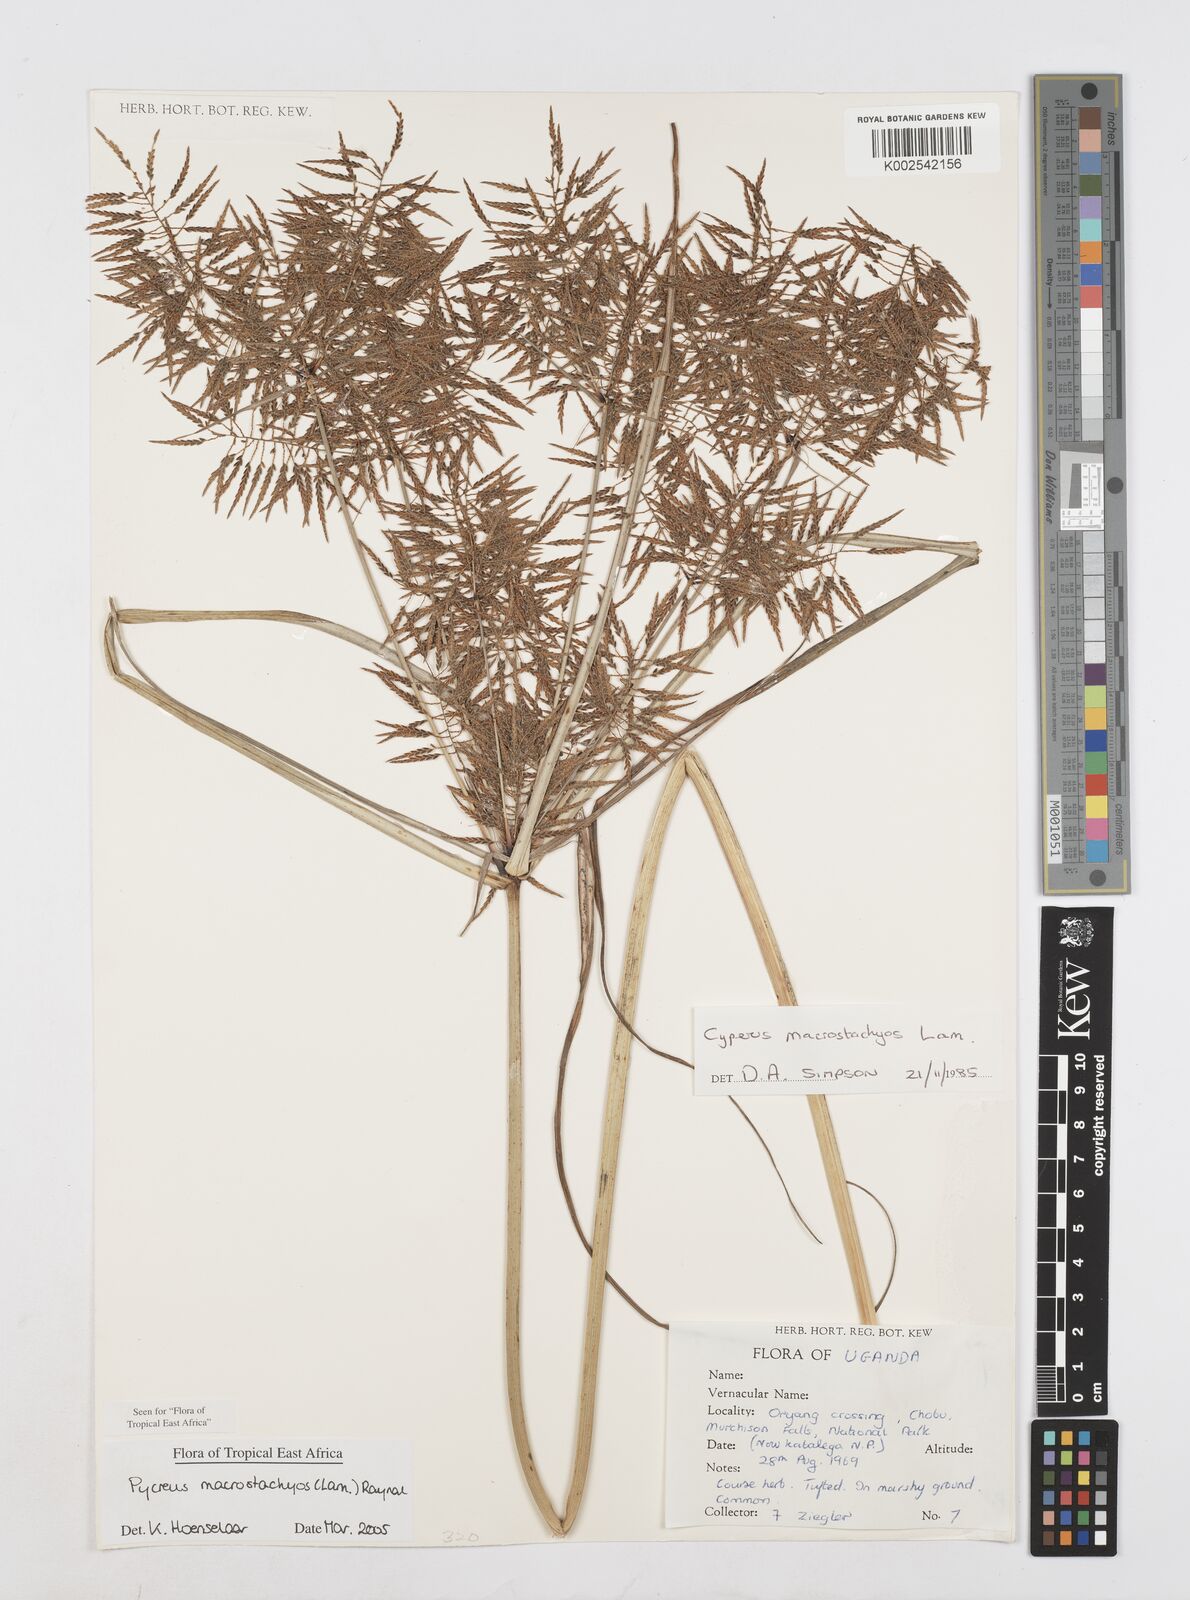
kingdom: Plantae
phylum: Tracheophyta
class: Liliopsida
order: Poales
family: Cyperaceae
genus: Cyperus
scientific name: Cyperus macrostachyos
